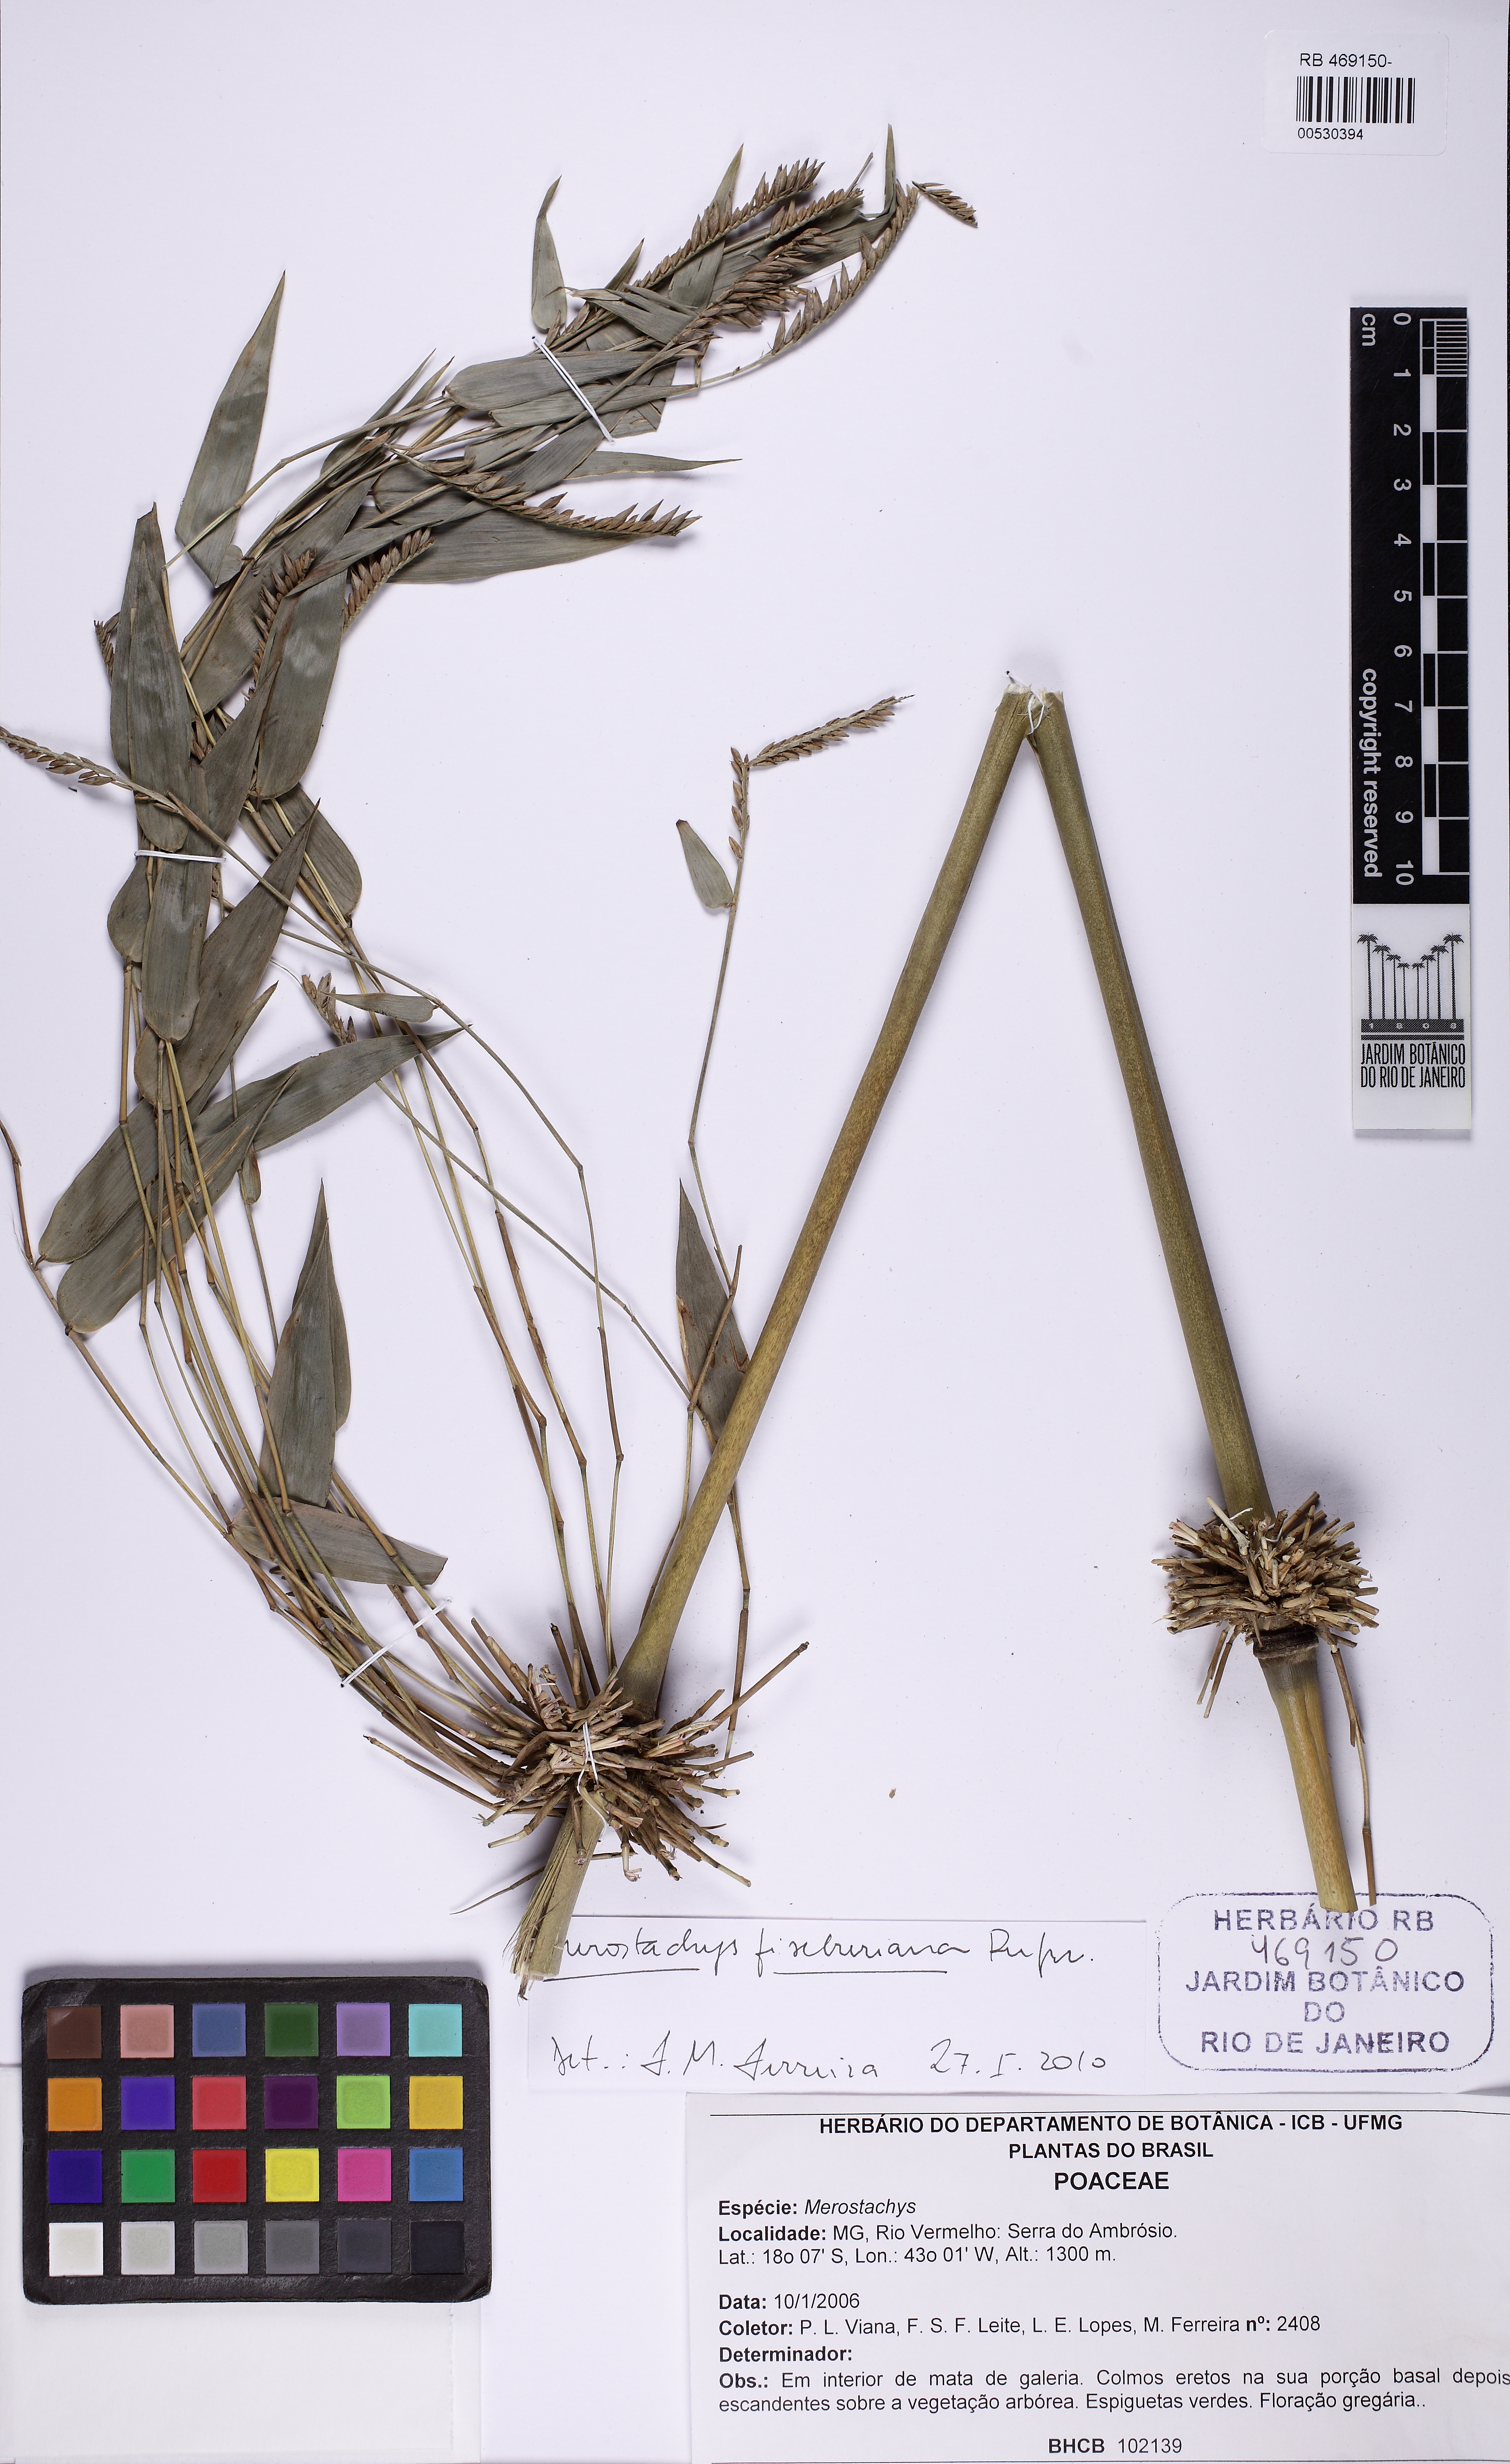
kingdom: Plantae
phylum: Tracheophyta
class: Liliopsida
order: Poales
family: Poaceae
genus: Merostachys
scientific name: Merostachys fischeriana
